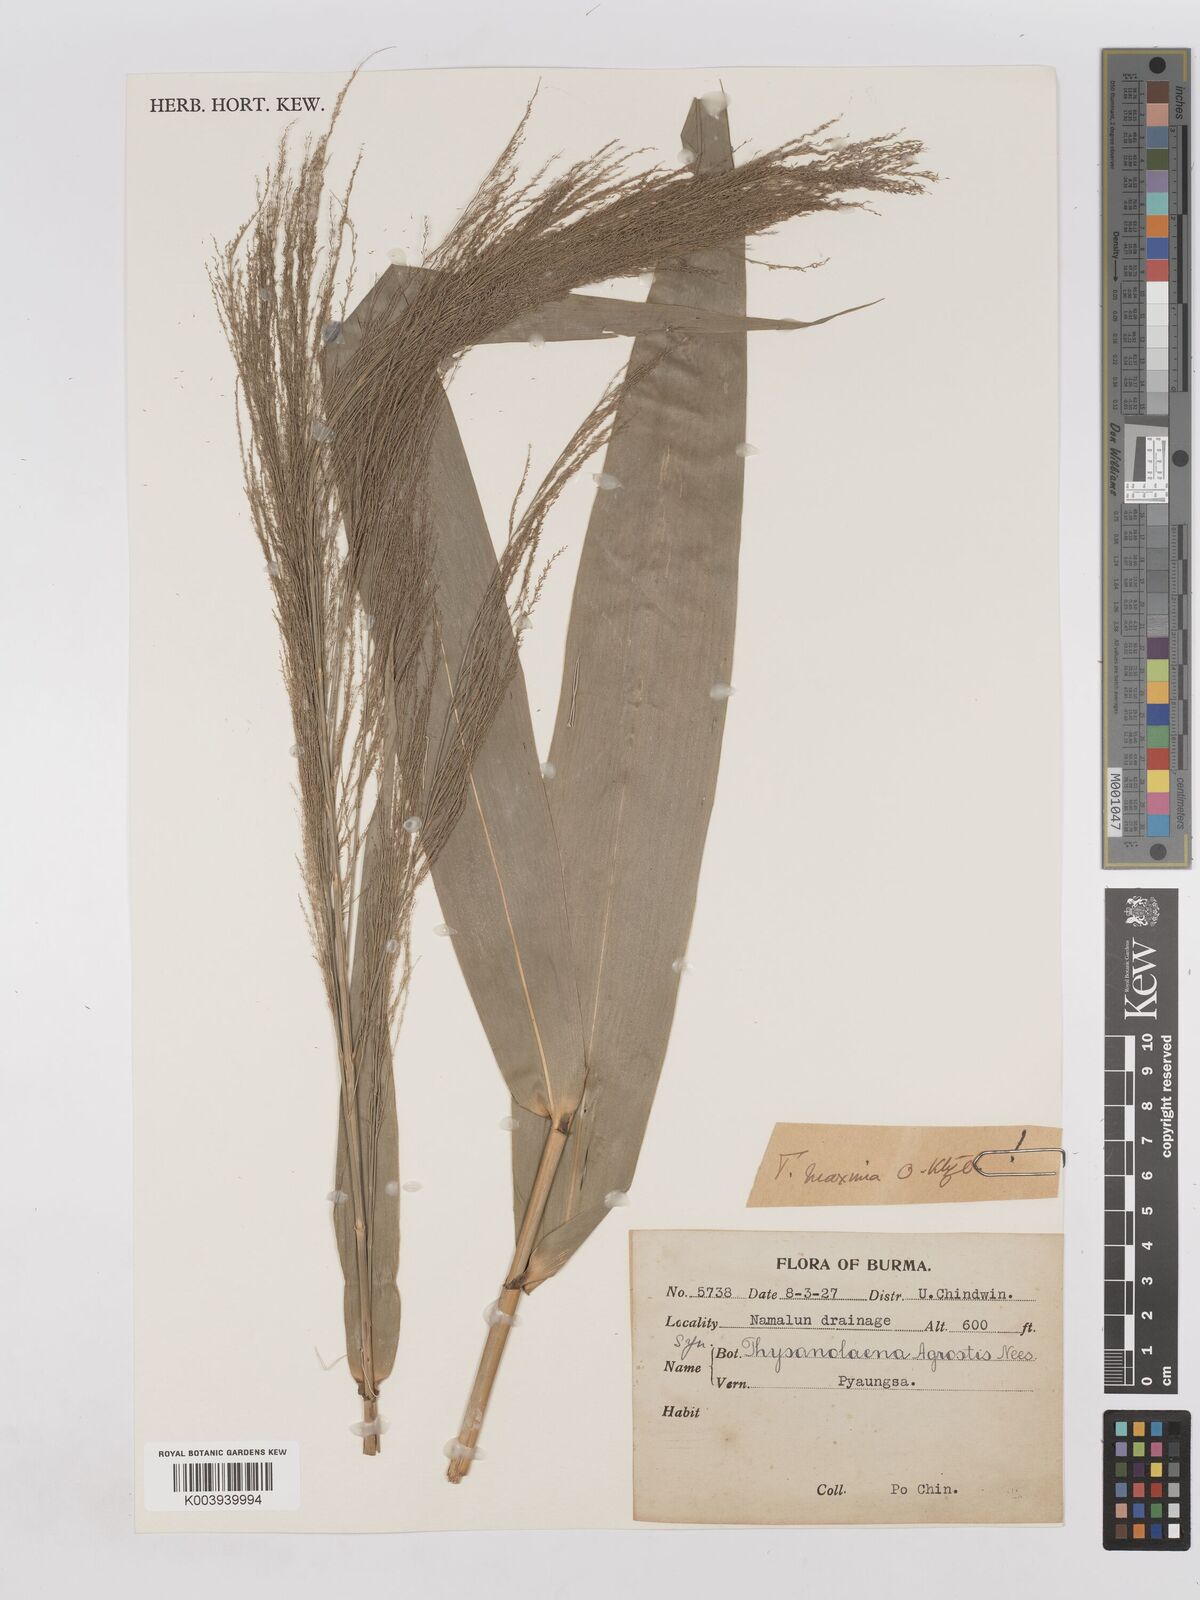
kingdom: Plantae
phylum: Tracheophyta
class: Liliopsida
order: Poales
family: Poaceae
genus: Thysanolaena
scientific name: Thysanolaena latifolia
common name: Tiger grass
